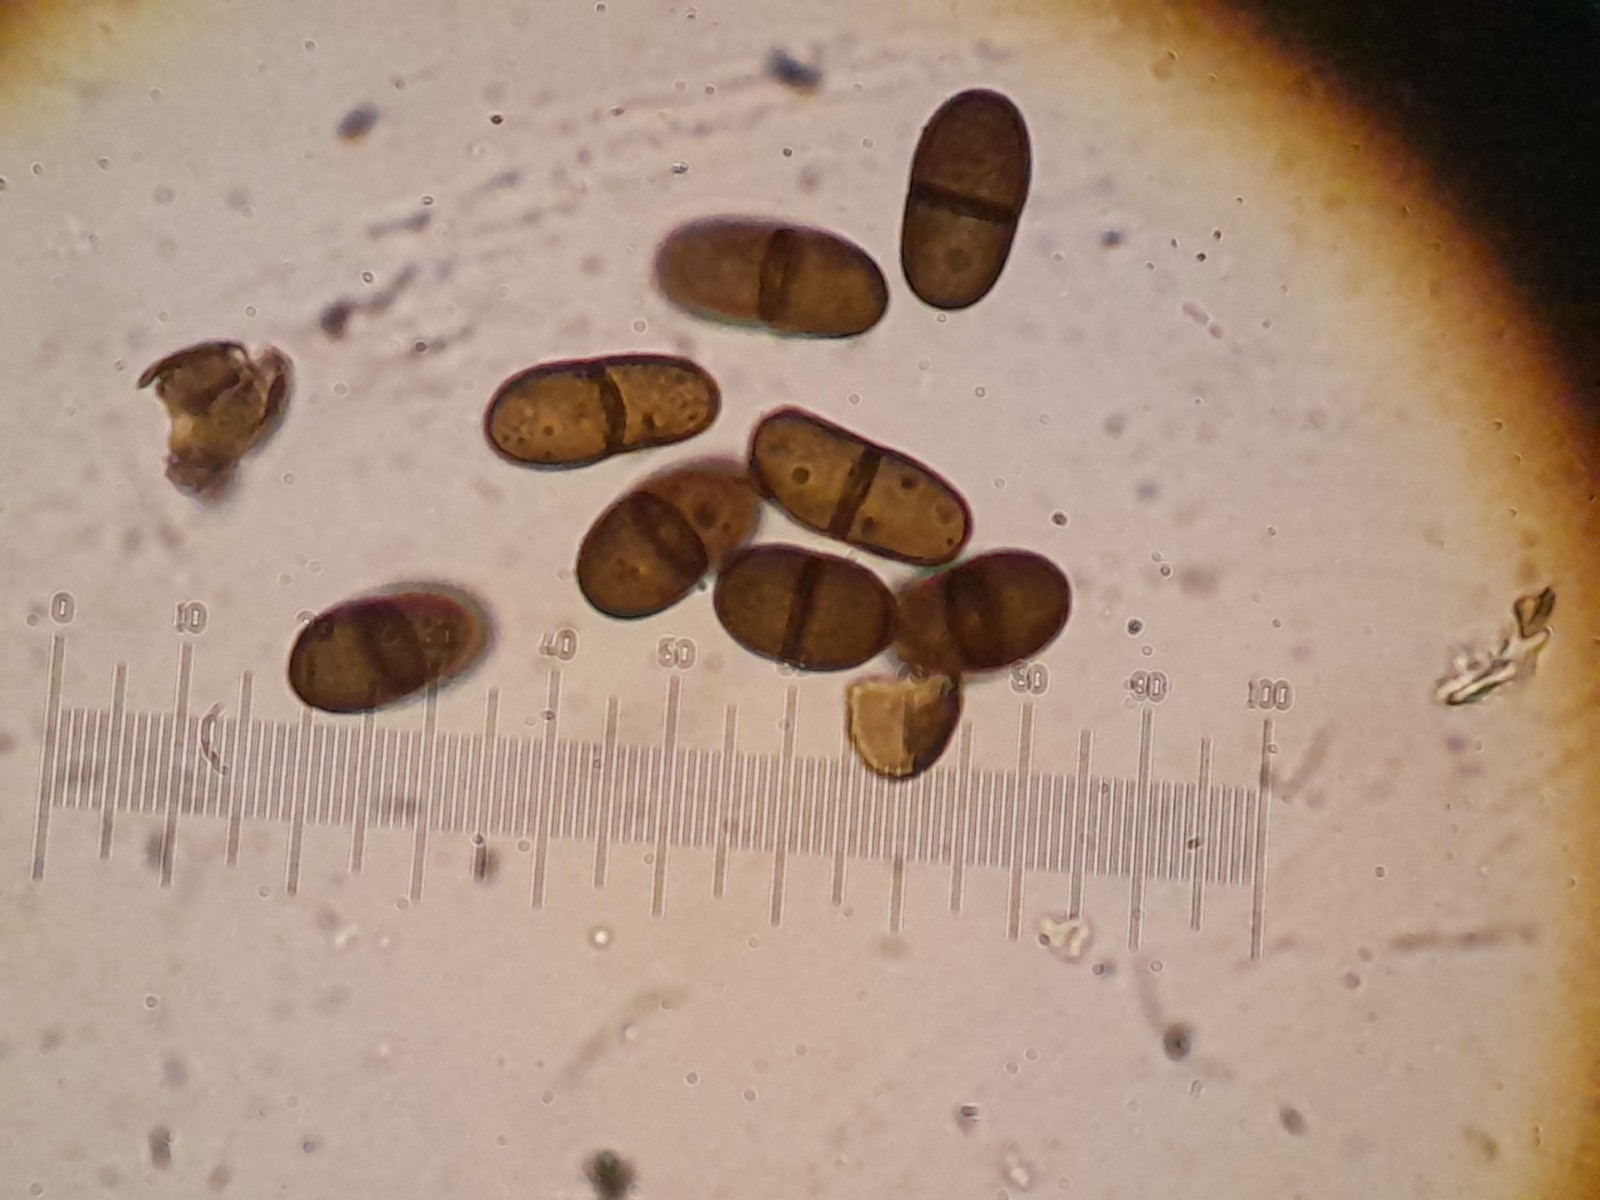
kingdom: Fungi
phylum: Ascomycota
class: Dothideomycetes
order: Botryosphaeriales
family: Botryosphaeriaceae
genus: Diplodia
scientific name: Diplodia sambucina
